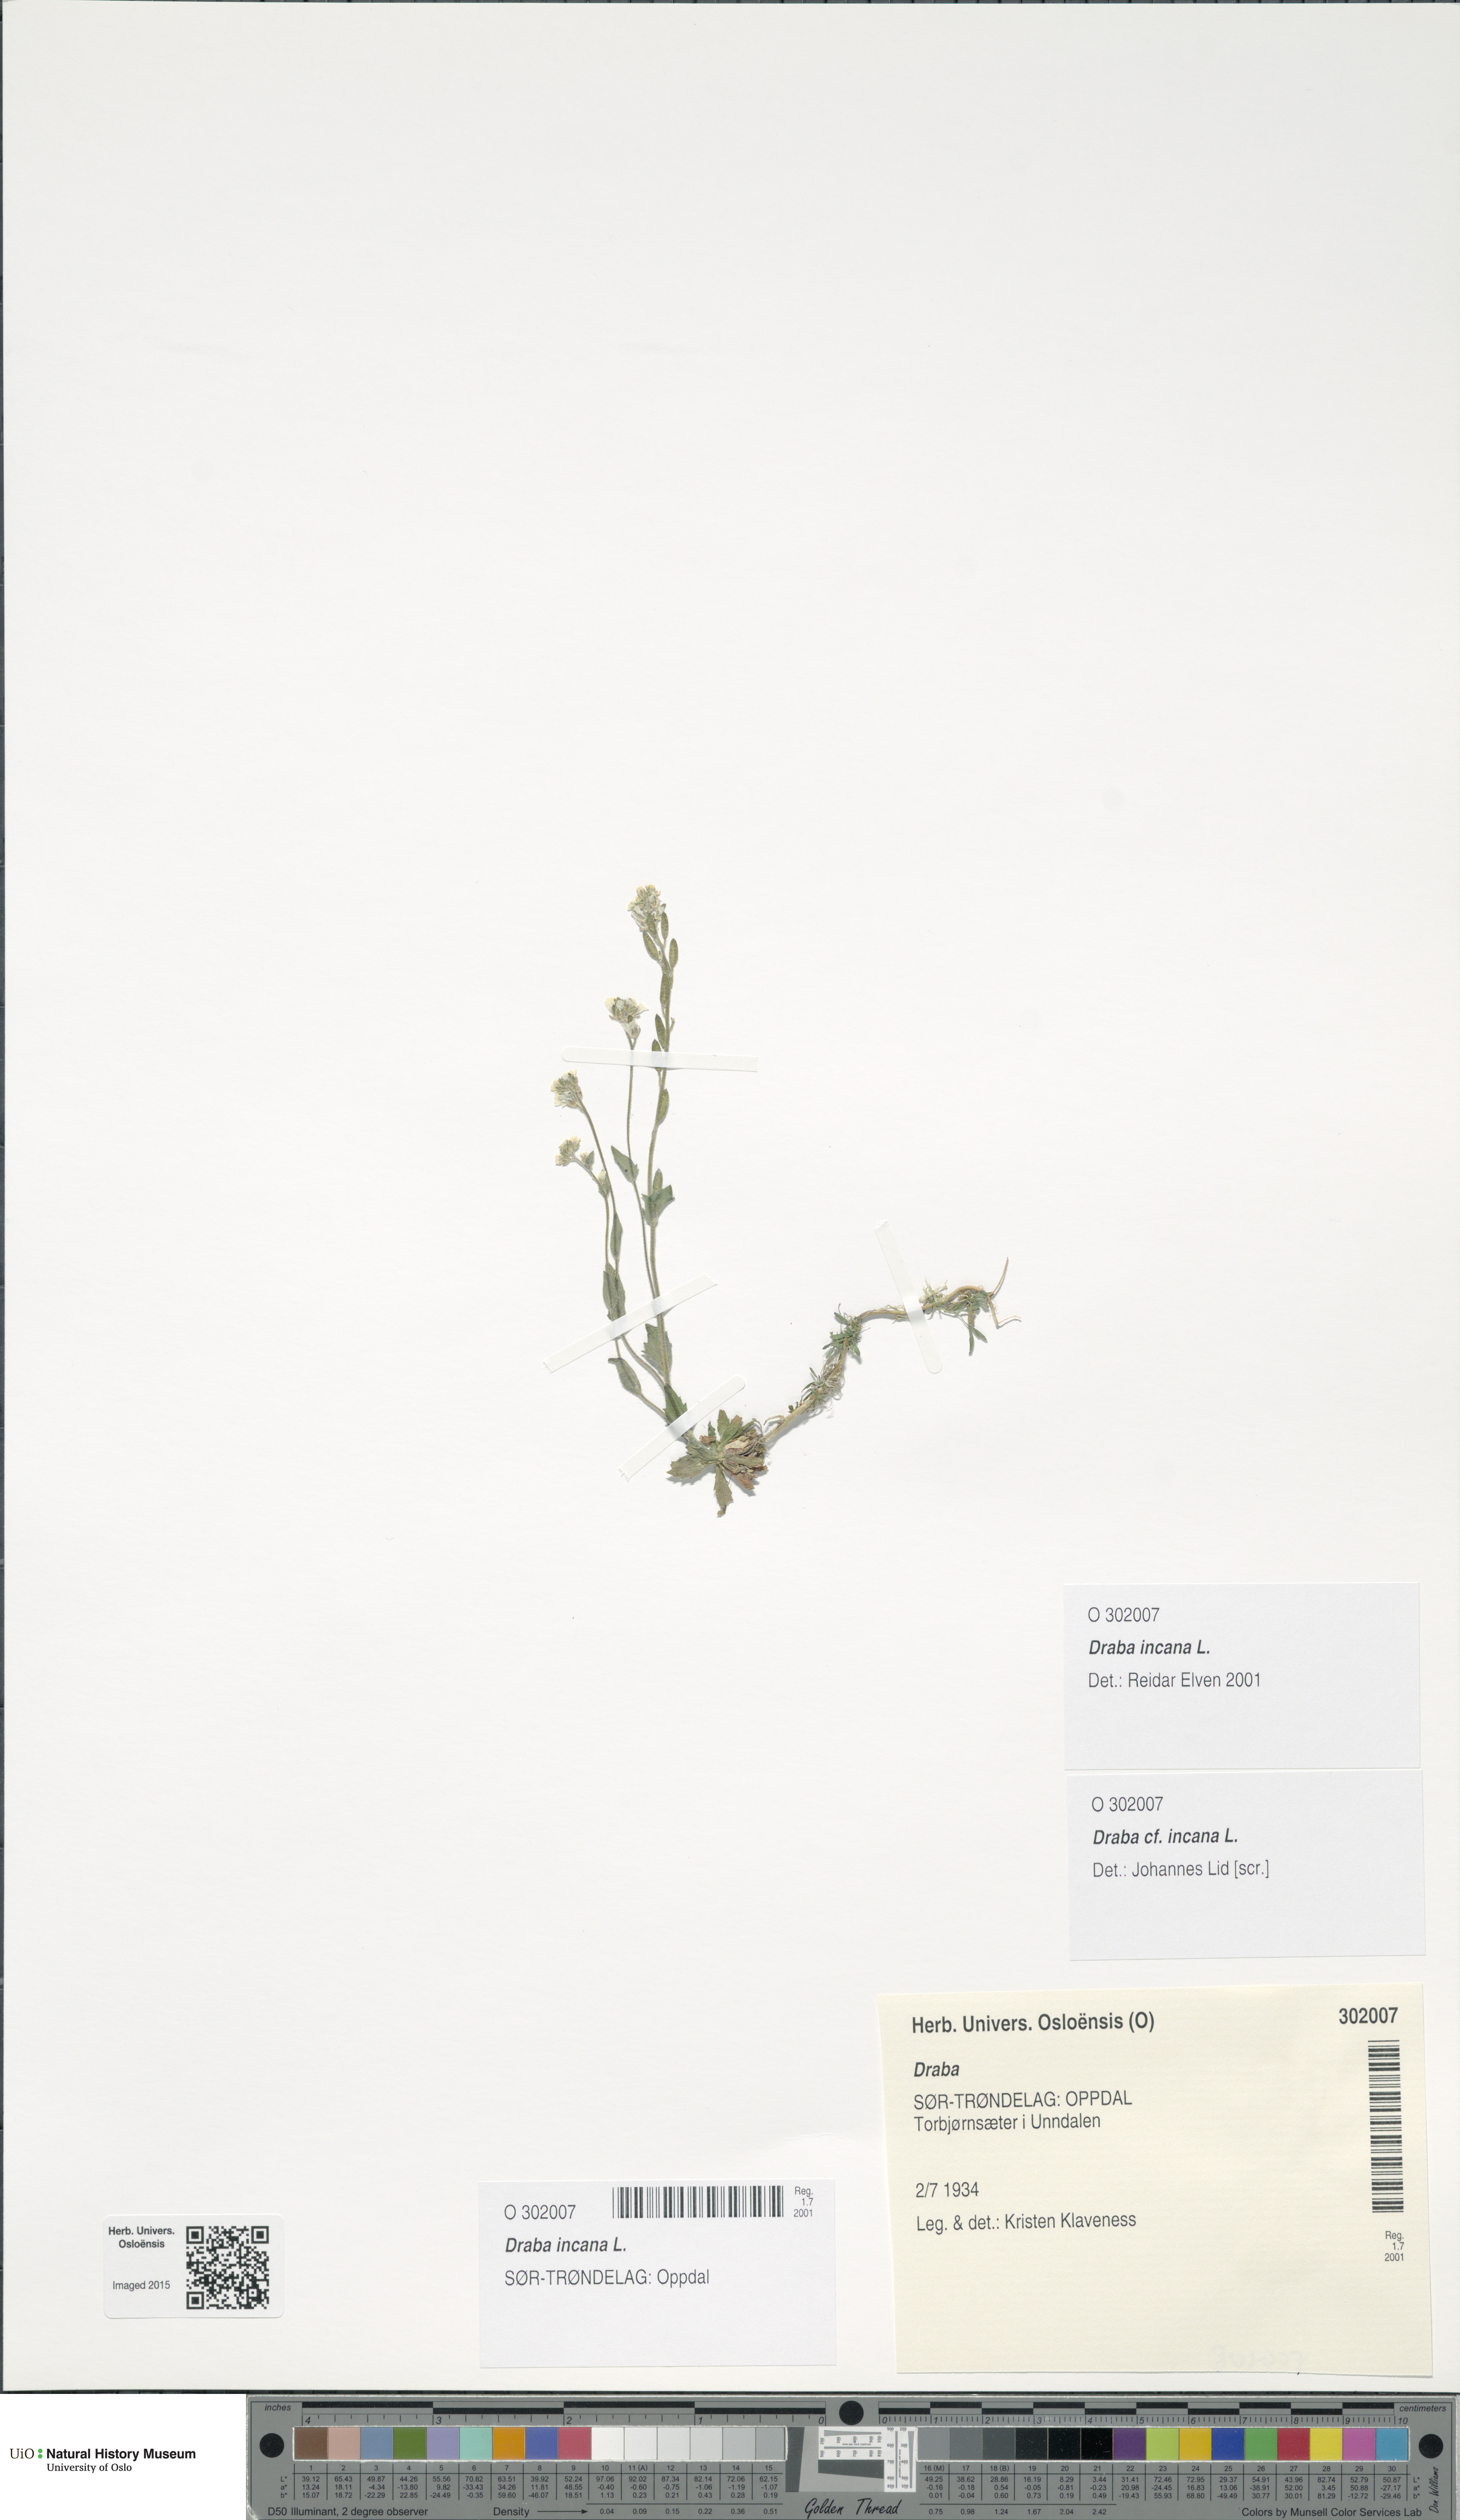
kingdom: Plantae
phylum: Tracheophyta
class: Magnoliopsida
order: Brassicales
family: Brassicaceae
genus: Draba
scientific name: Draba incana
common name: Hoary whitlow-grass
